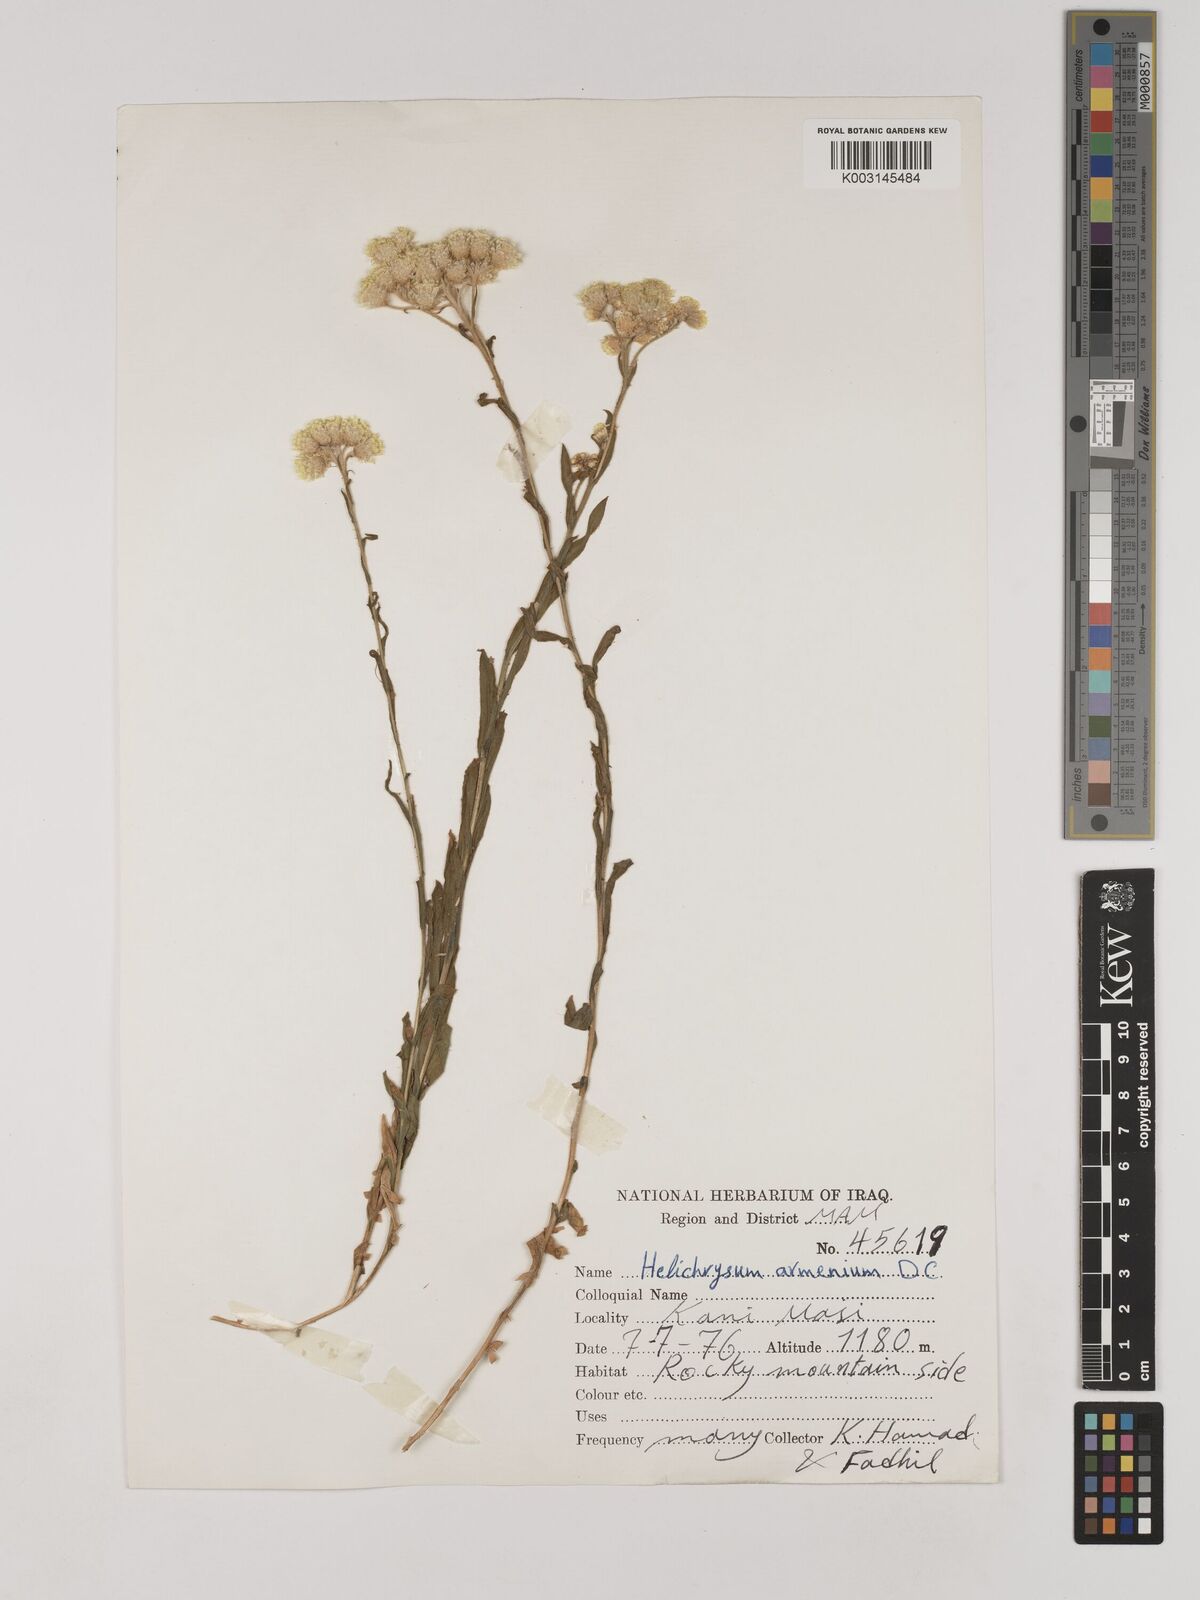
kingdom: Plantae
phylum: Tracheophyta
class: Magnoliopsida
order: Asterales
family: Asteraceae
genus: Helichrysum
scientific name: Helichrysum armenium
